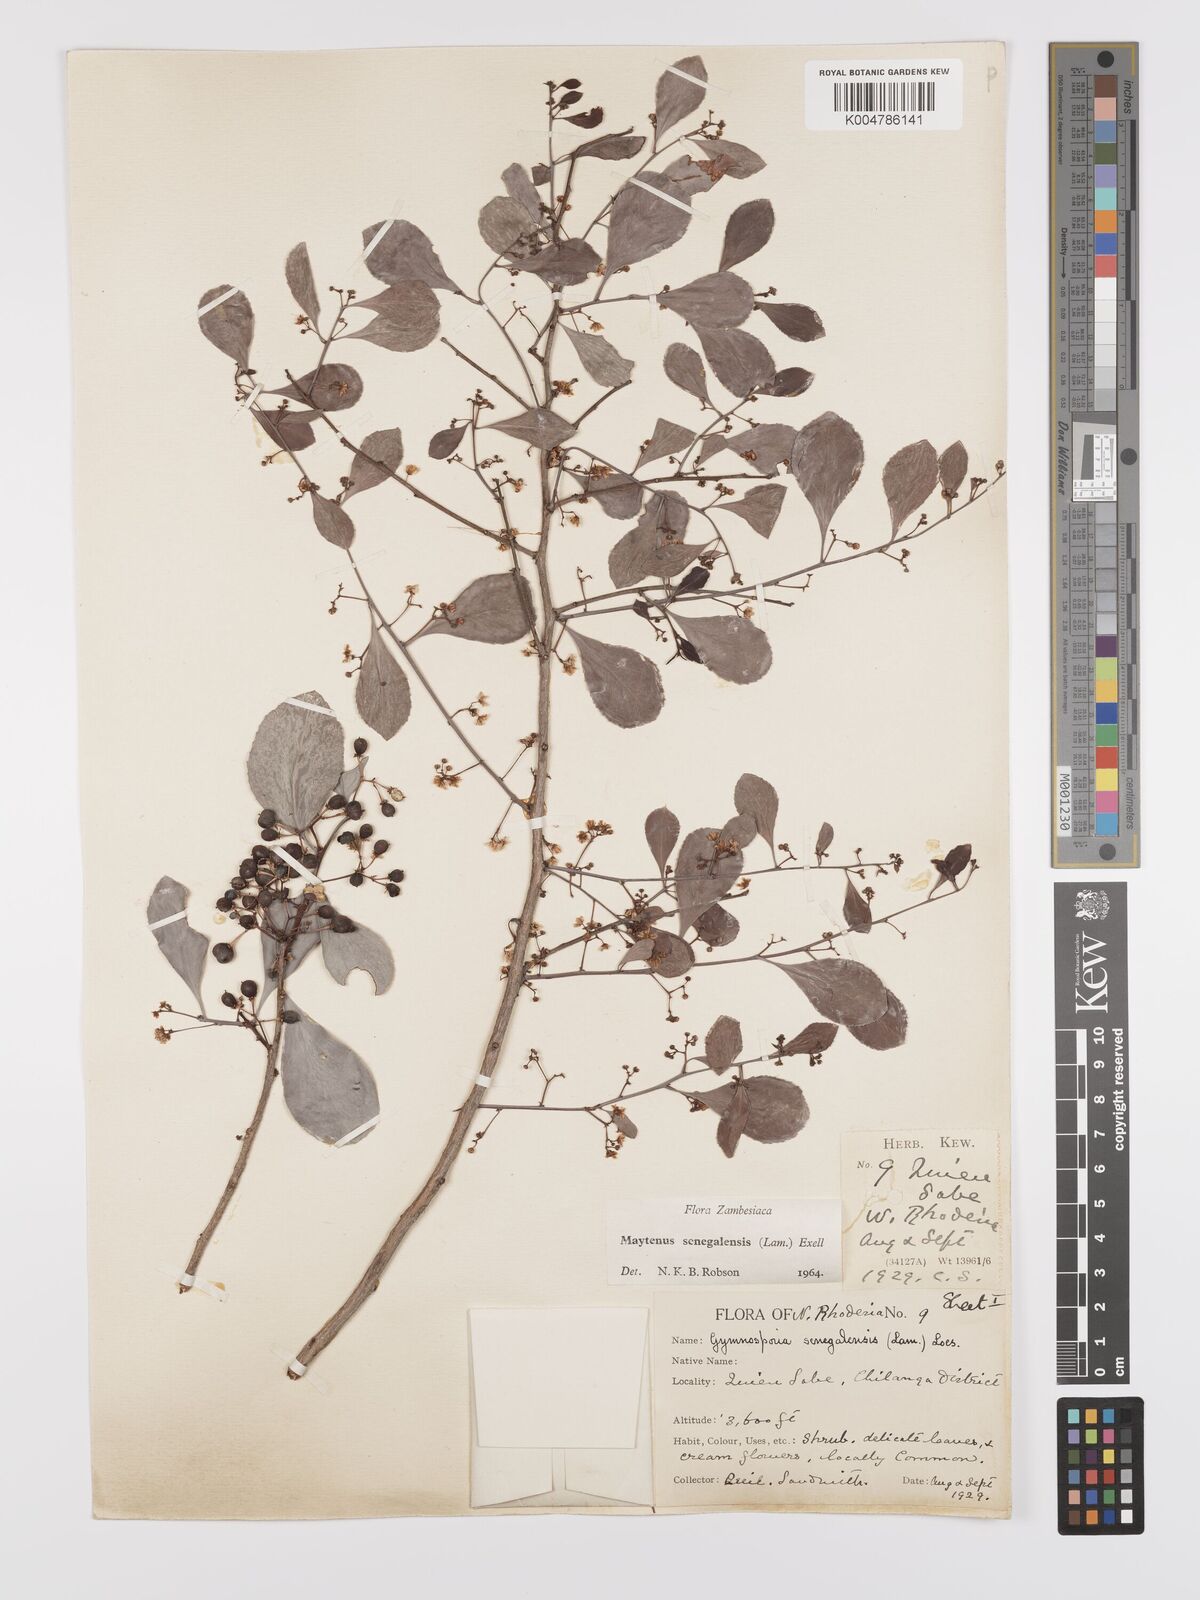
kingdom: Plantae
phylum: Tracheophyta
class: Magnoliopsida
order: Celastrales
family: Celastraceae
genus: Gymnosporia
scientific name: Gymnosporia senegalensis
